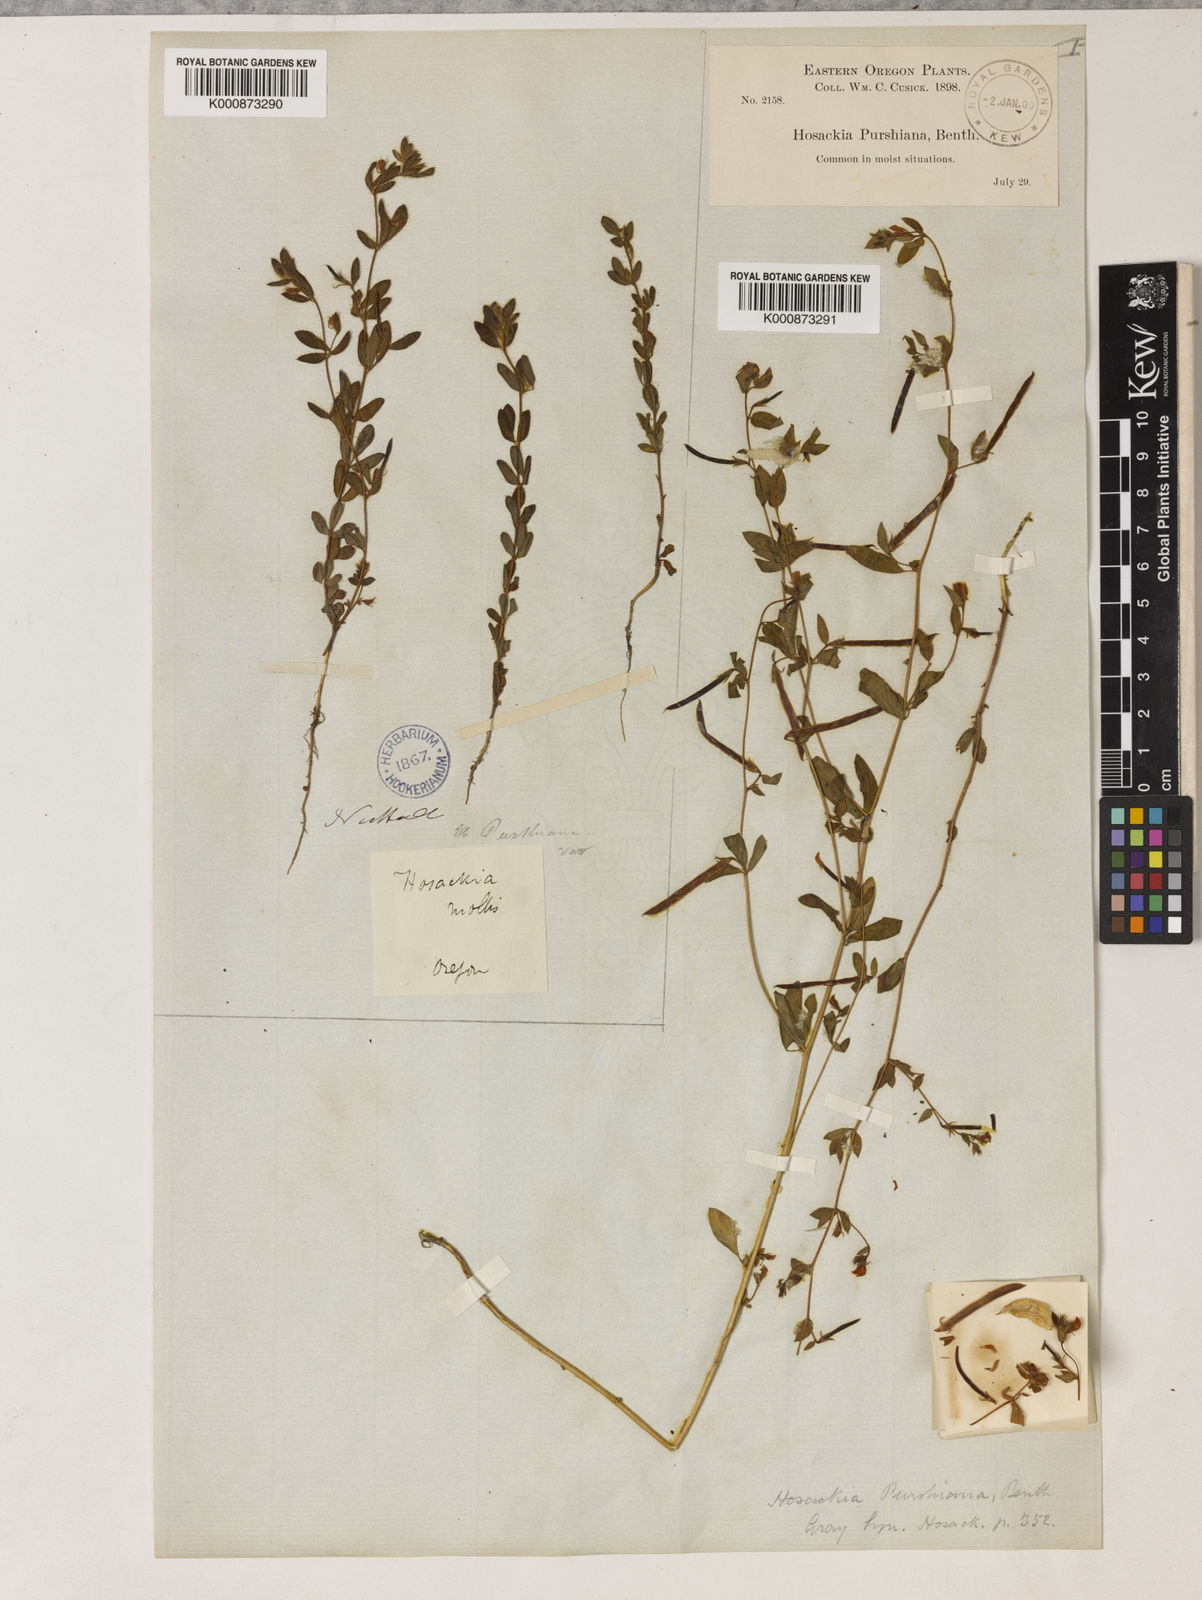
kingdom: Plantae
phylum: Tracheophyta
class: Magnoliopsida
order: Fabales
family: Fabaceae
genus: Collaea
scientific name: Collaea speciosa
